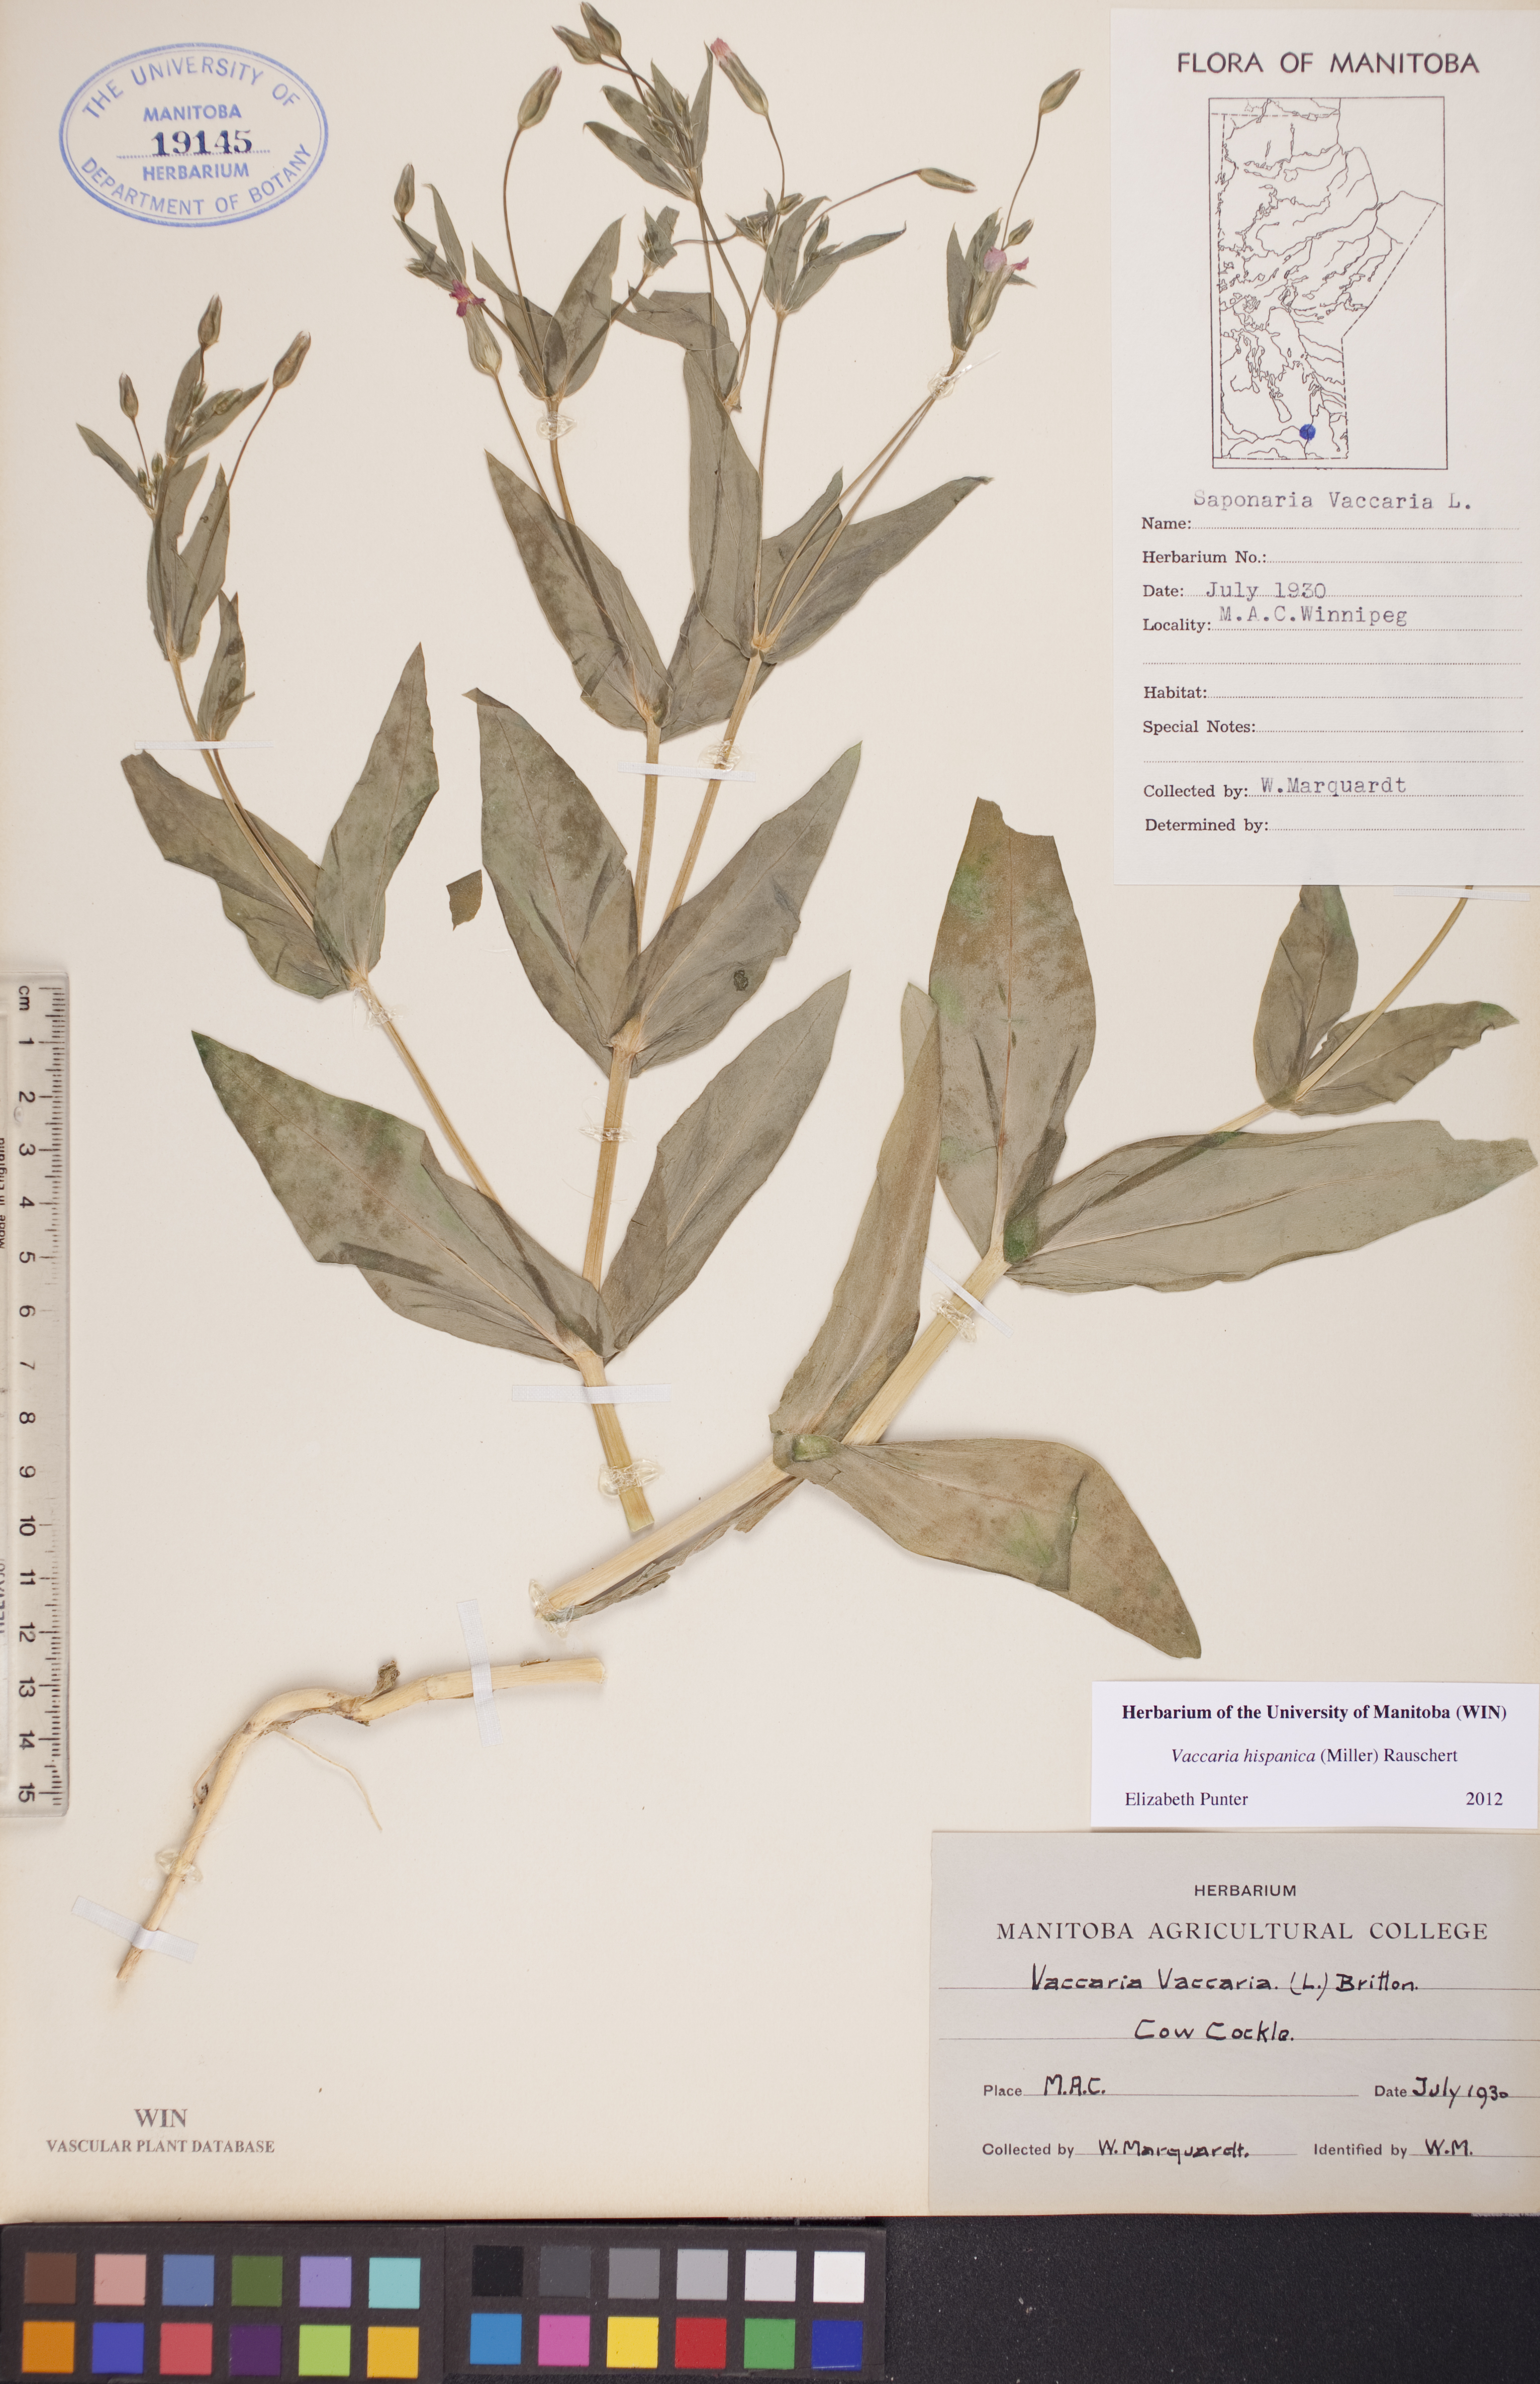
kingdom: Plantae
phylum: Tracheophyta
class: Magnoliopsida
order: Caryophyllales
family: Caryophyllaceae
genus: Gypsophila
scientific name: Gypsophila vaccaria
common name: Cow soapwort
